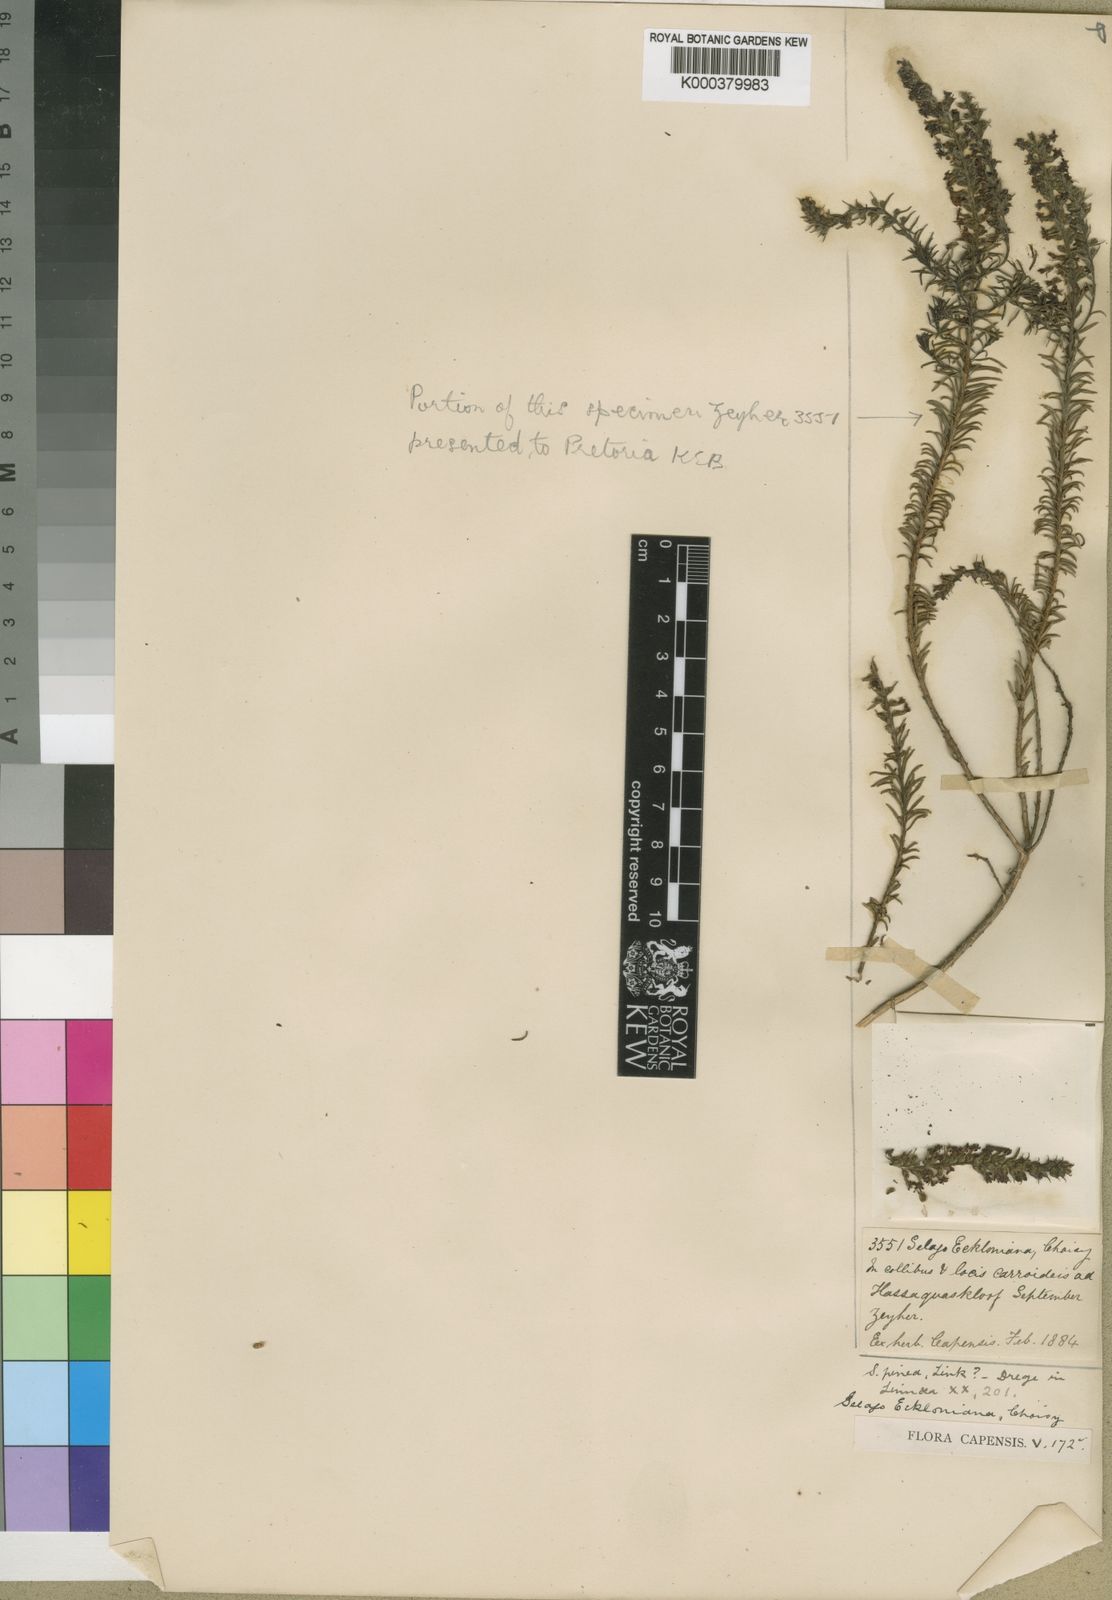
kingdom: Plantae
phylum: Tracheophyta
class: Magnoliopsida
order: Lamiales
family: Scrophulariaceae
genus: Selago
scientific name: Selago eckloniana
